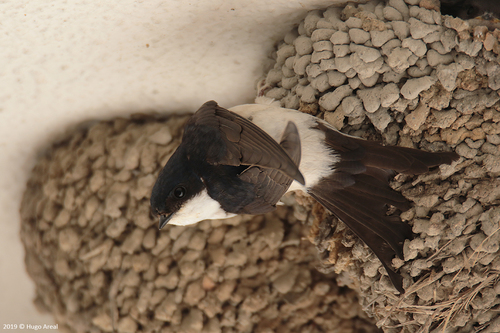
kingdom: Animalia
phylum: Chordata
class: Aves
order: Passeriformes
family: Hirundinidae
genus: Delichon
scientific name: Delichon urbicum
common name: Common house martin
